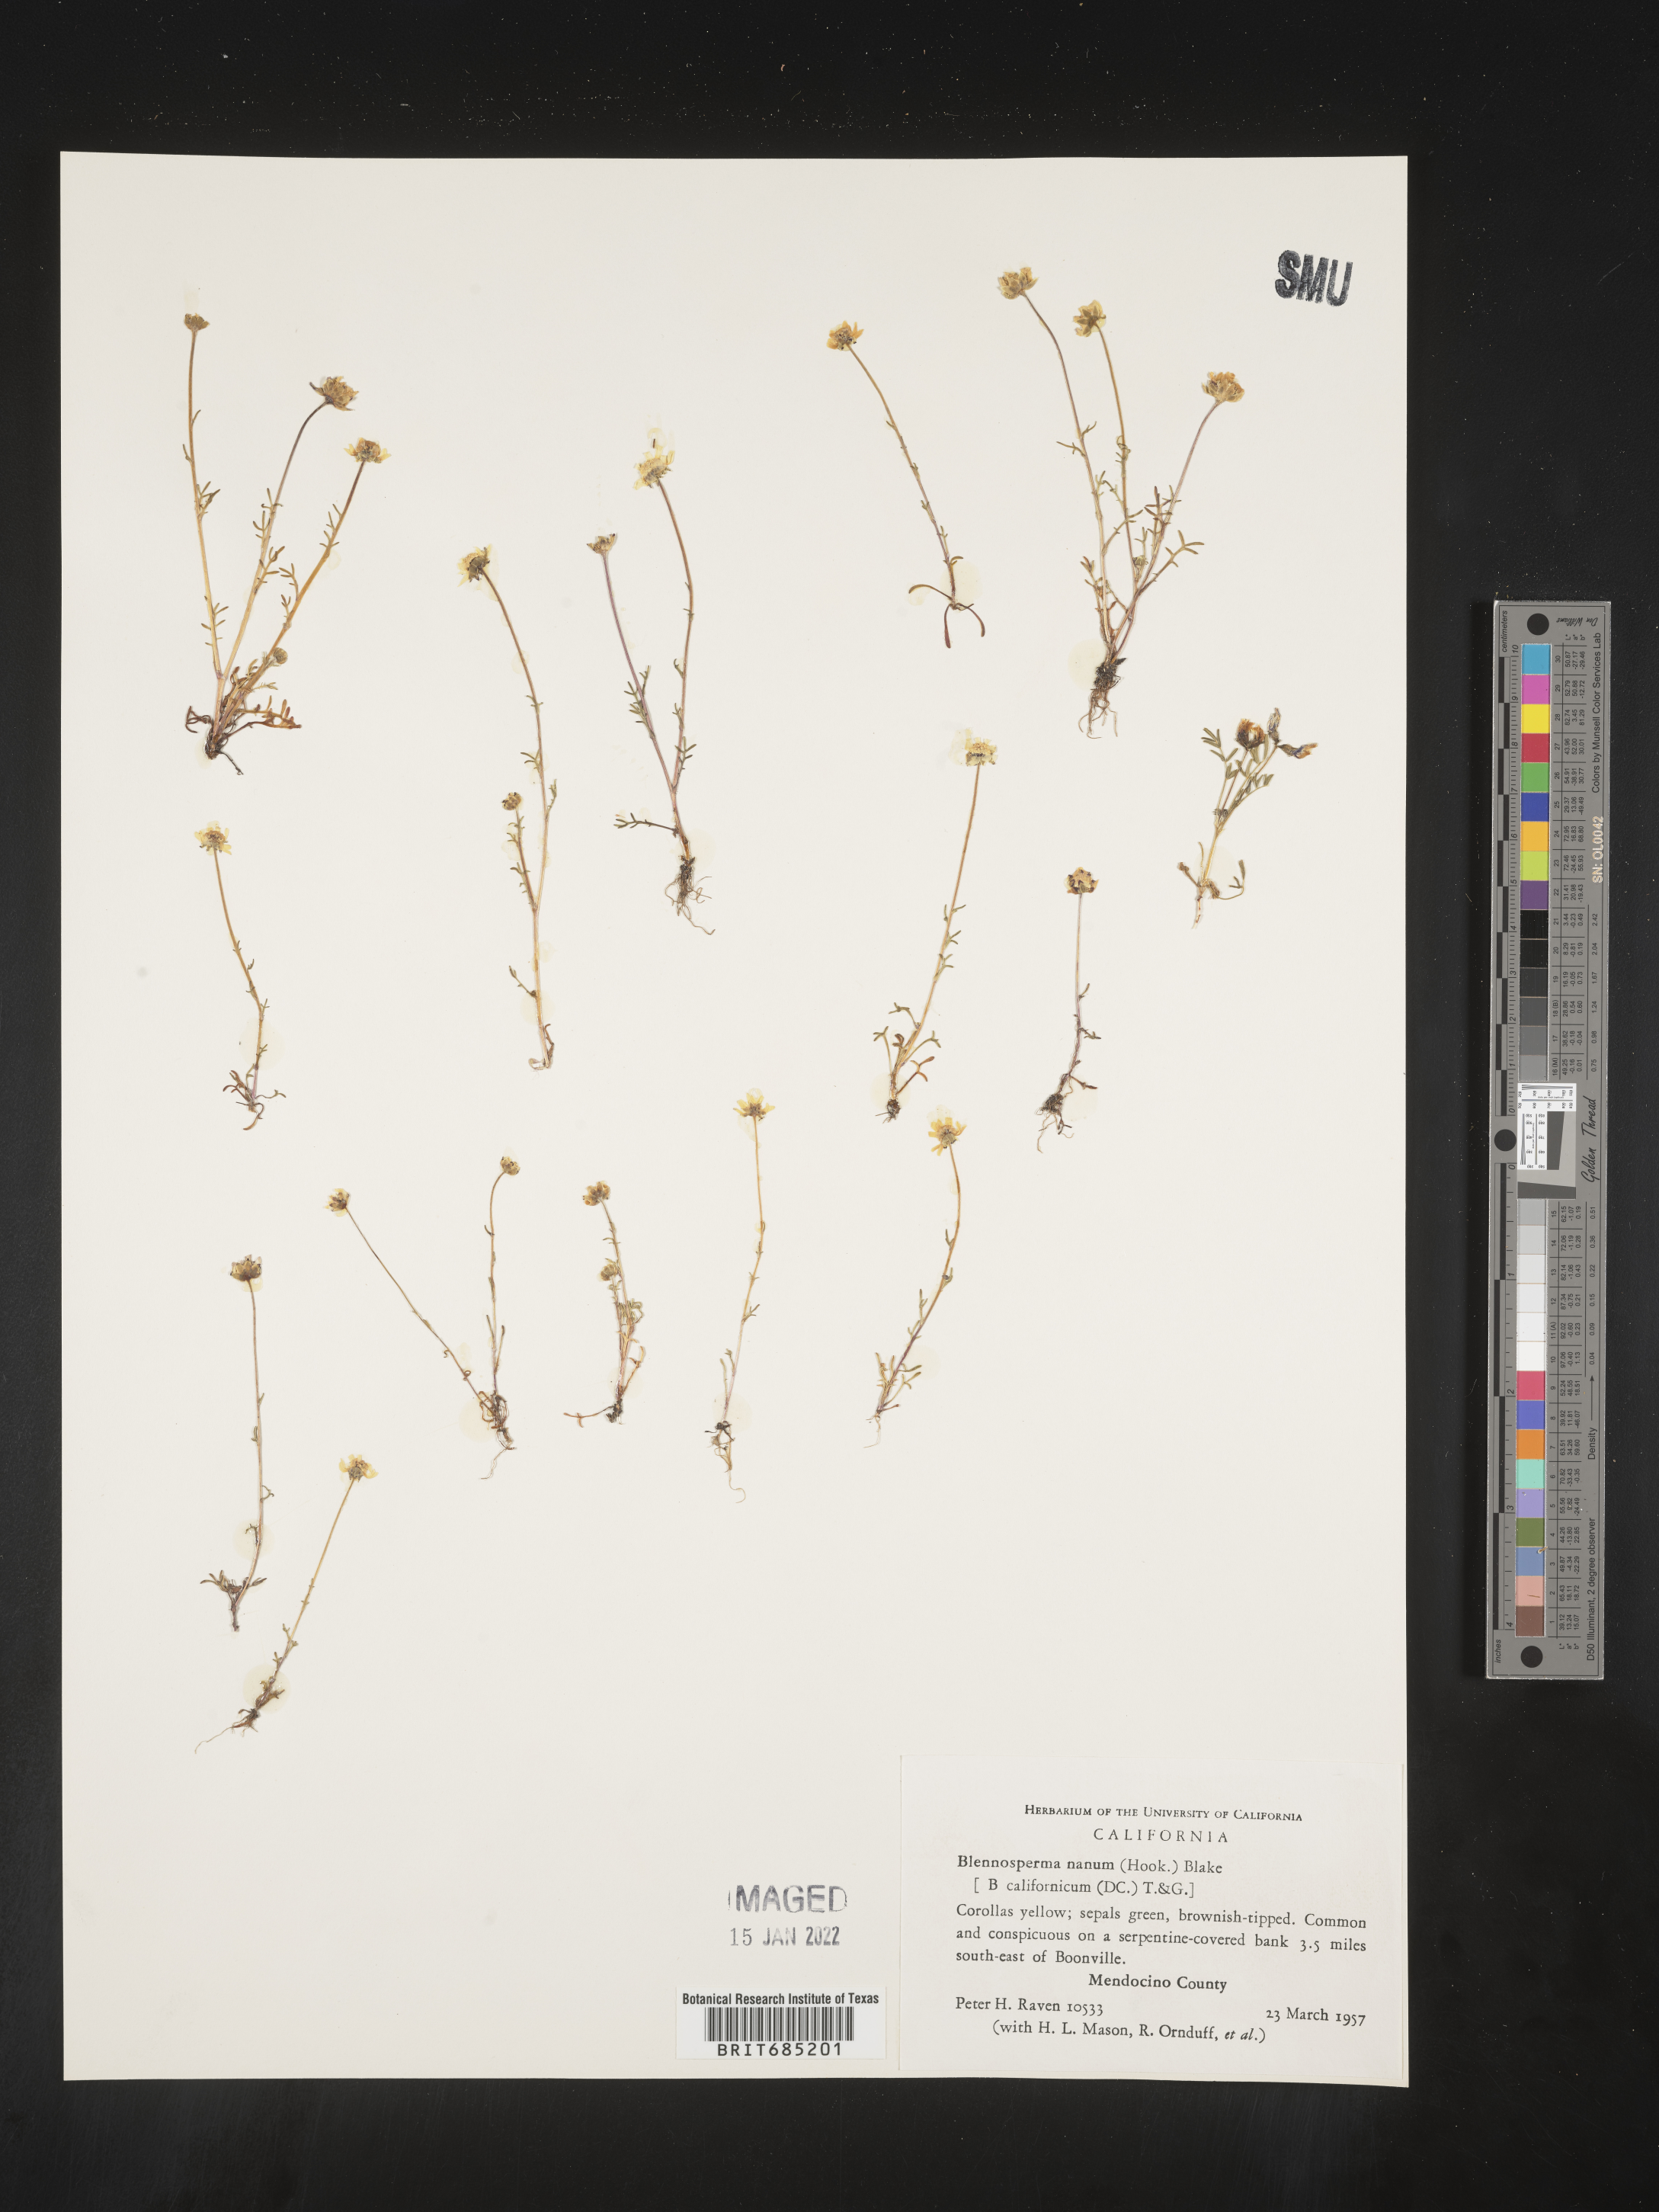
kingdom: Plantae
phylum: Tracheophyta
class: Magnoliopsida
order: Asterales
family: Asteraceae
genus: Blennosperma
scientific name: Blennosperma
